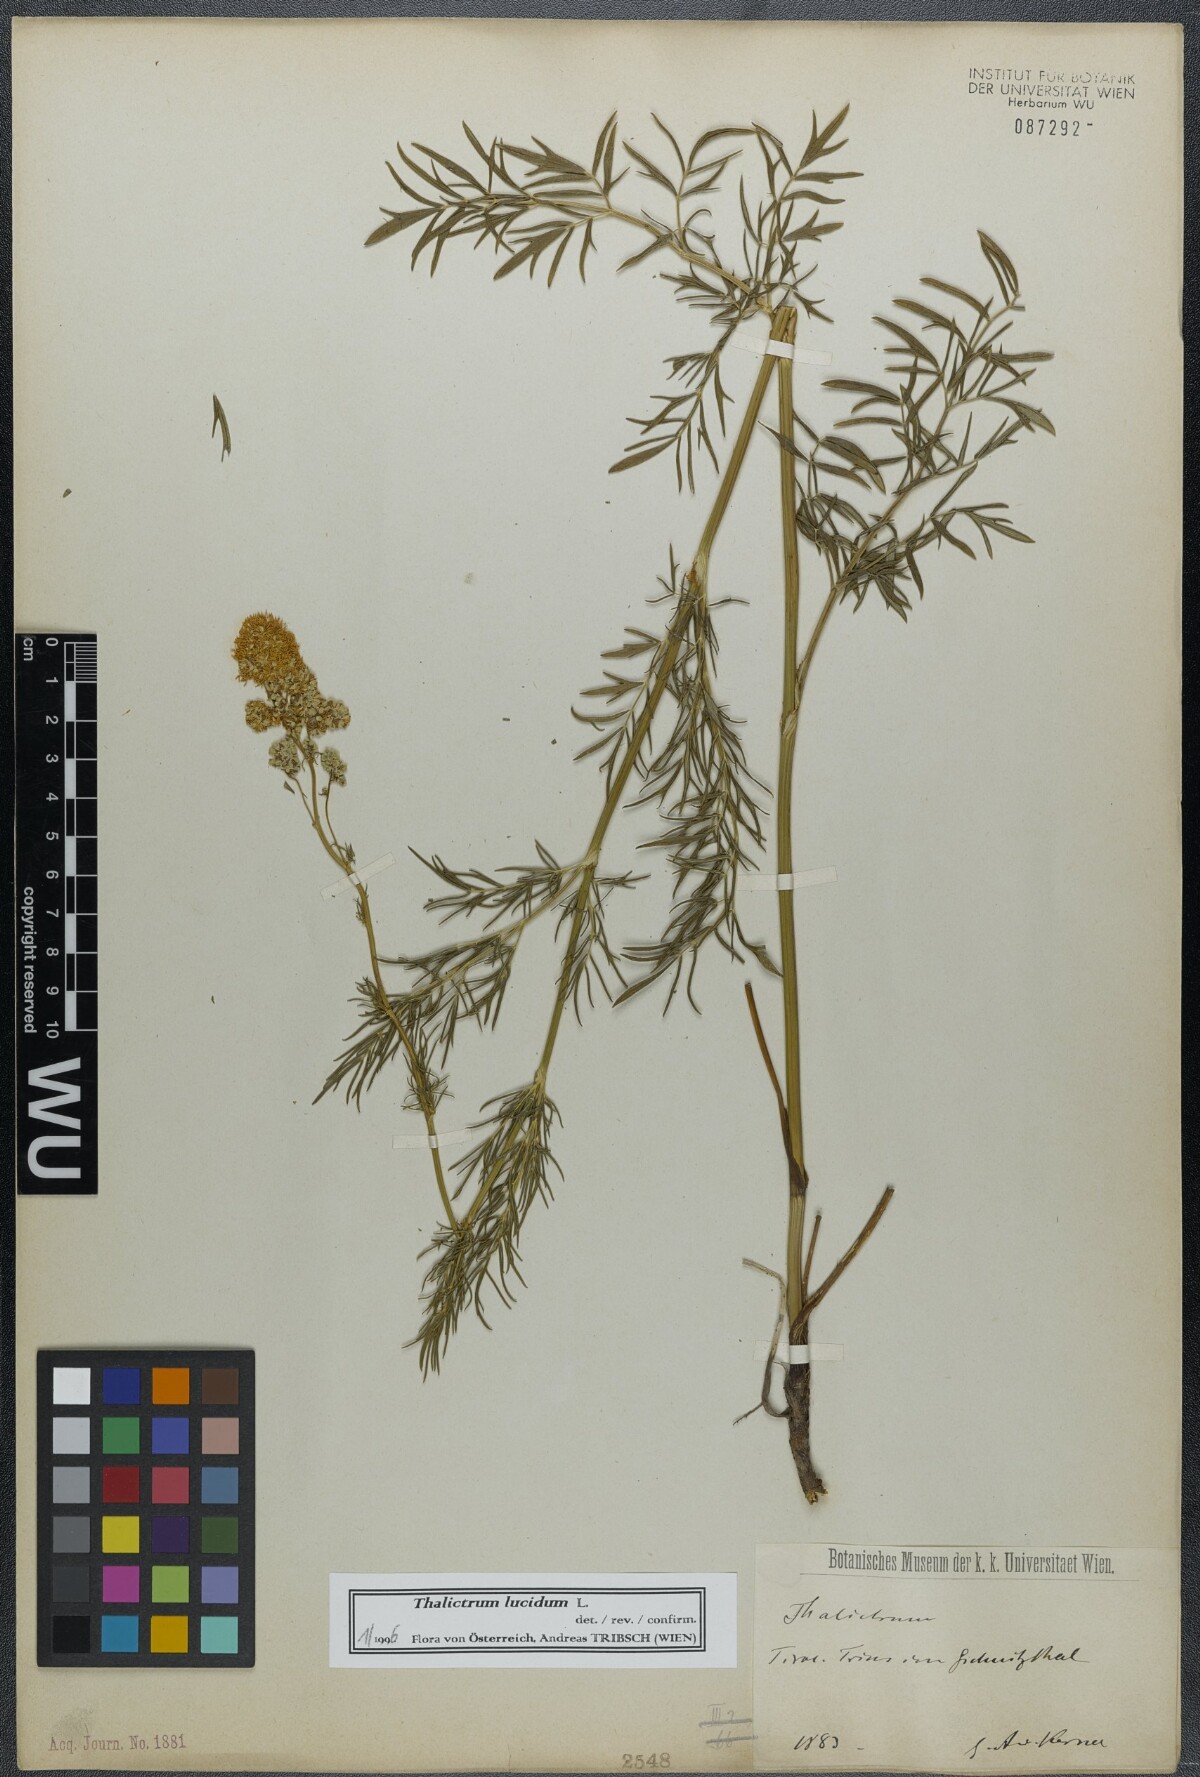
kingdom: Plantae
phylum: Tracheophyta
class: Magnoliopsida
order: Ranunculales
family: Ranunculaceae
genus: Thalictrum
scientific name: Thalictrum lucidum
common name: Shining meadow-rue
